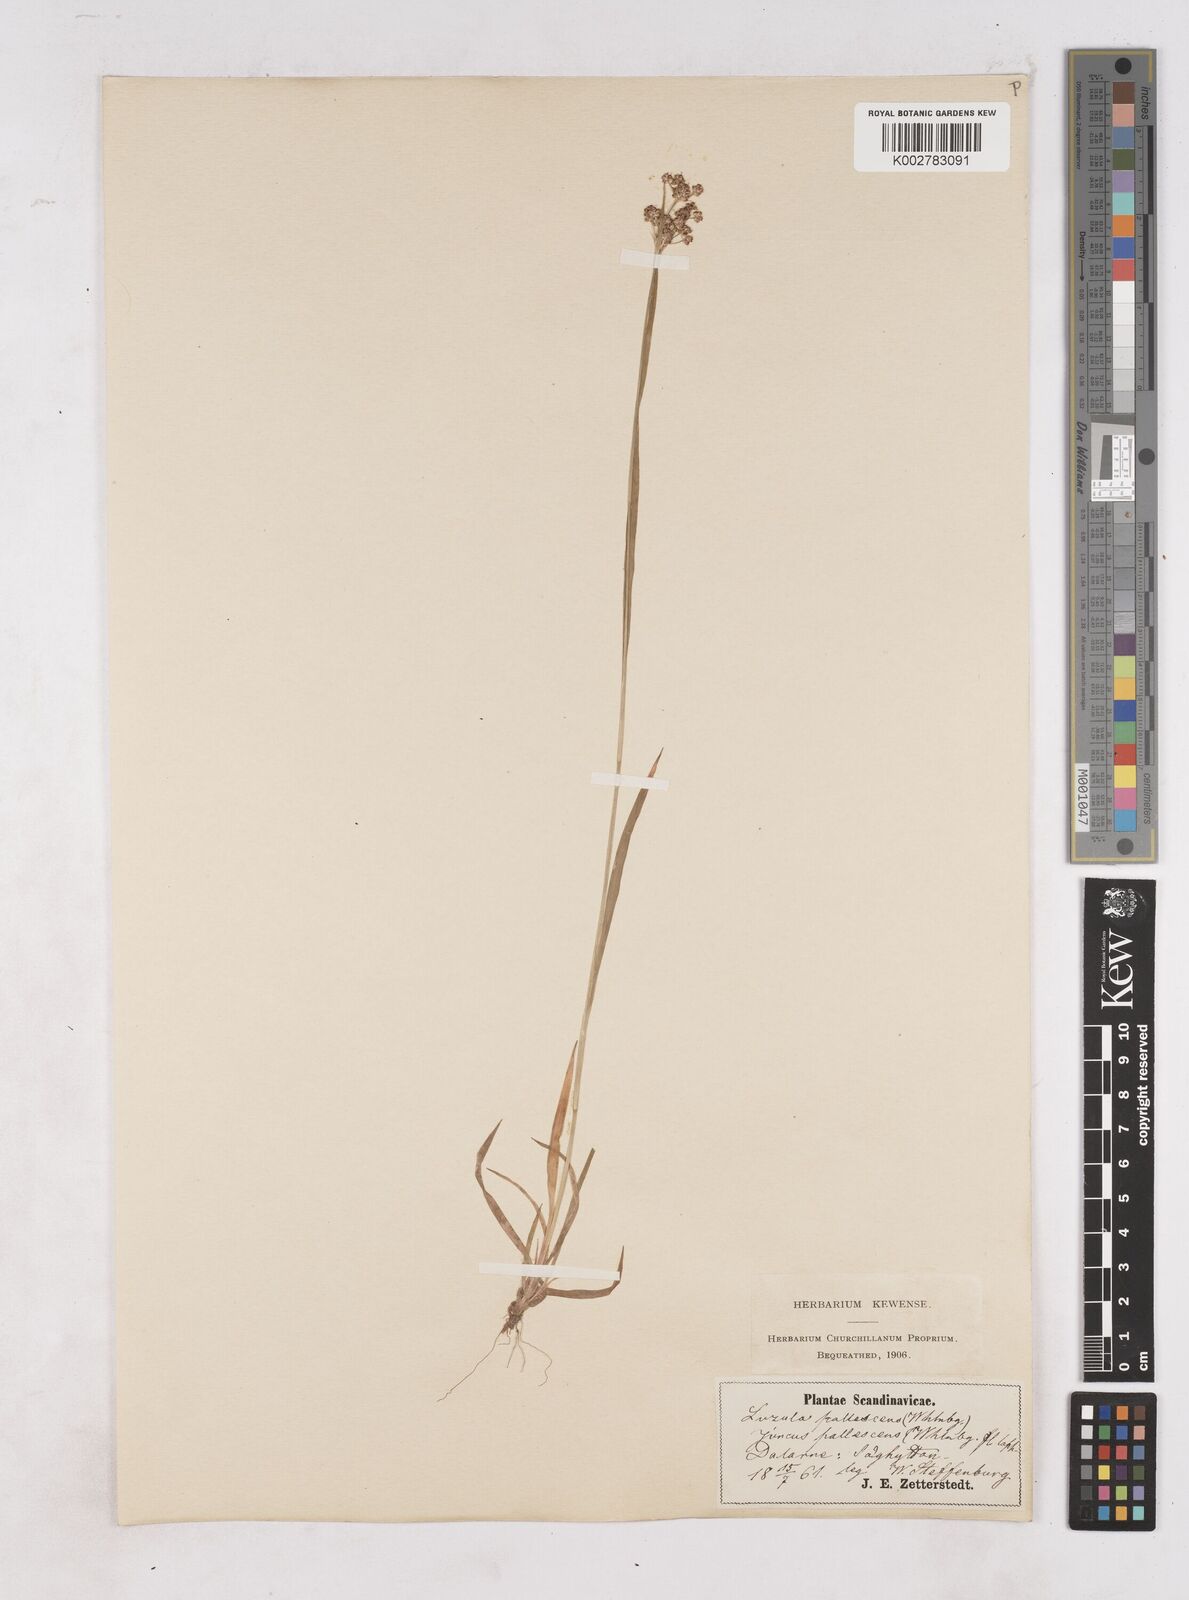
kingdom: Plantae
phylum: Tracheophyta
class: Liliopsida
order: Poales
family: Juncaceae
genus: Luzula
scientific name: Luzula pallescens
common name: Fen wood-rush
